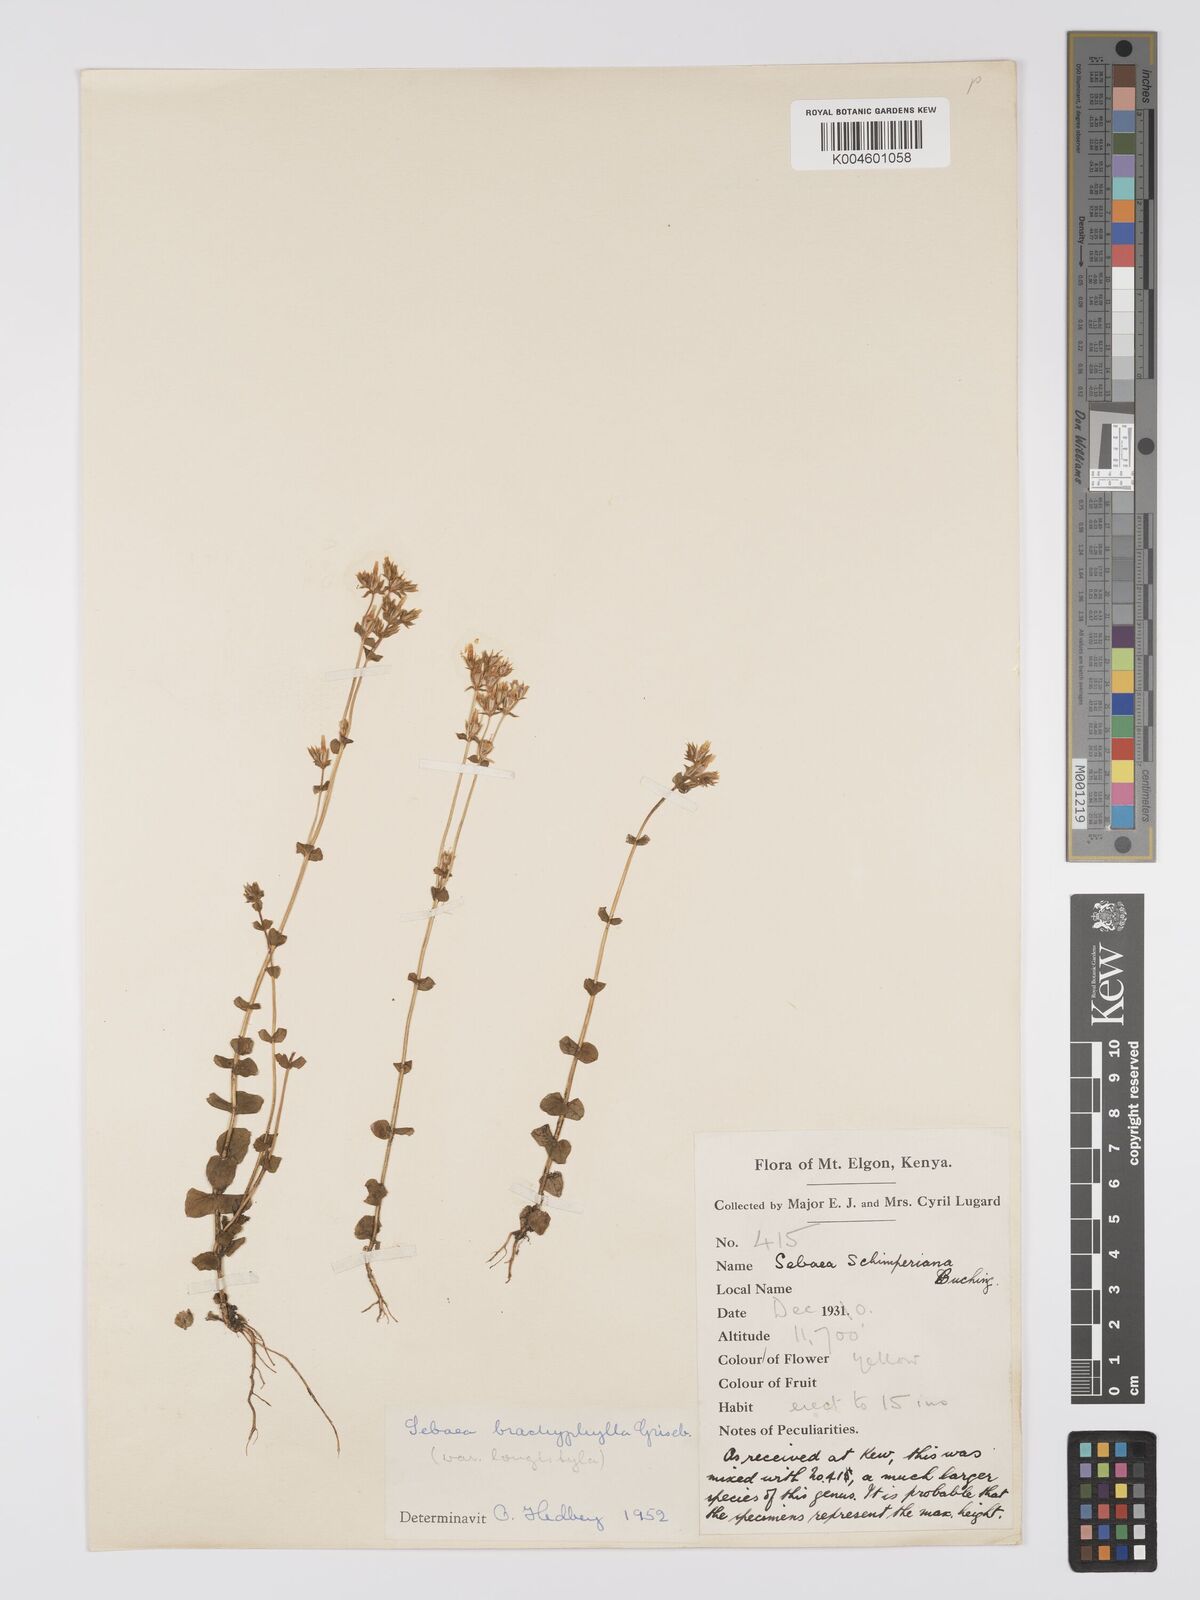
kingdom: Plantae
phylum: Tracheophyta
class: Magnoliopsida
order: Gentianales
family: Gentianaceae
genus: Sebaea
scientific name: Sebaea brachyphylla
